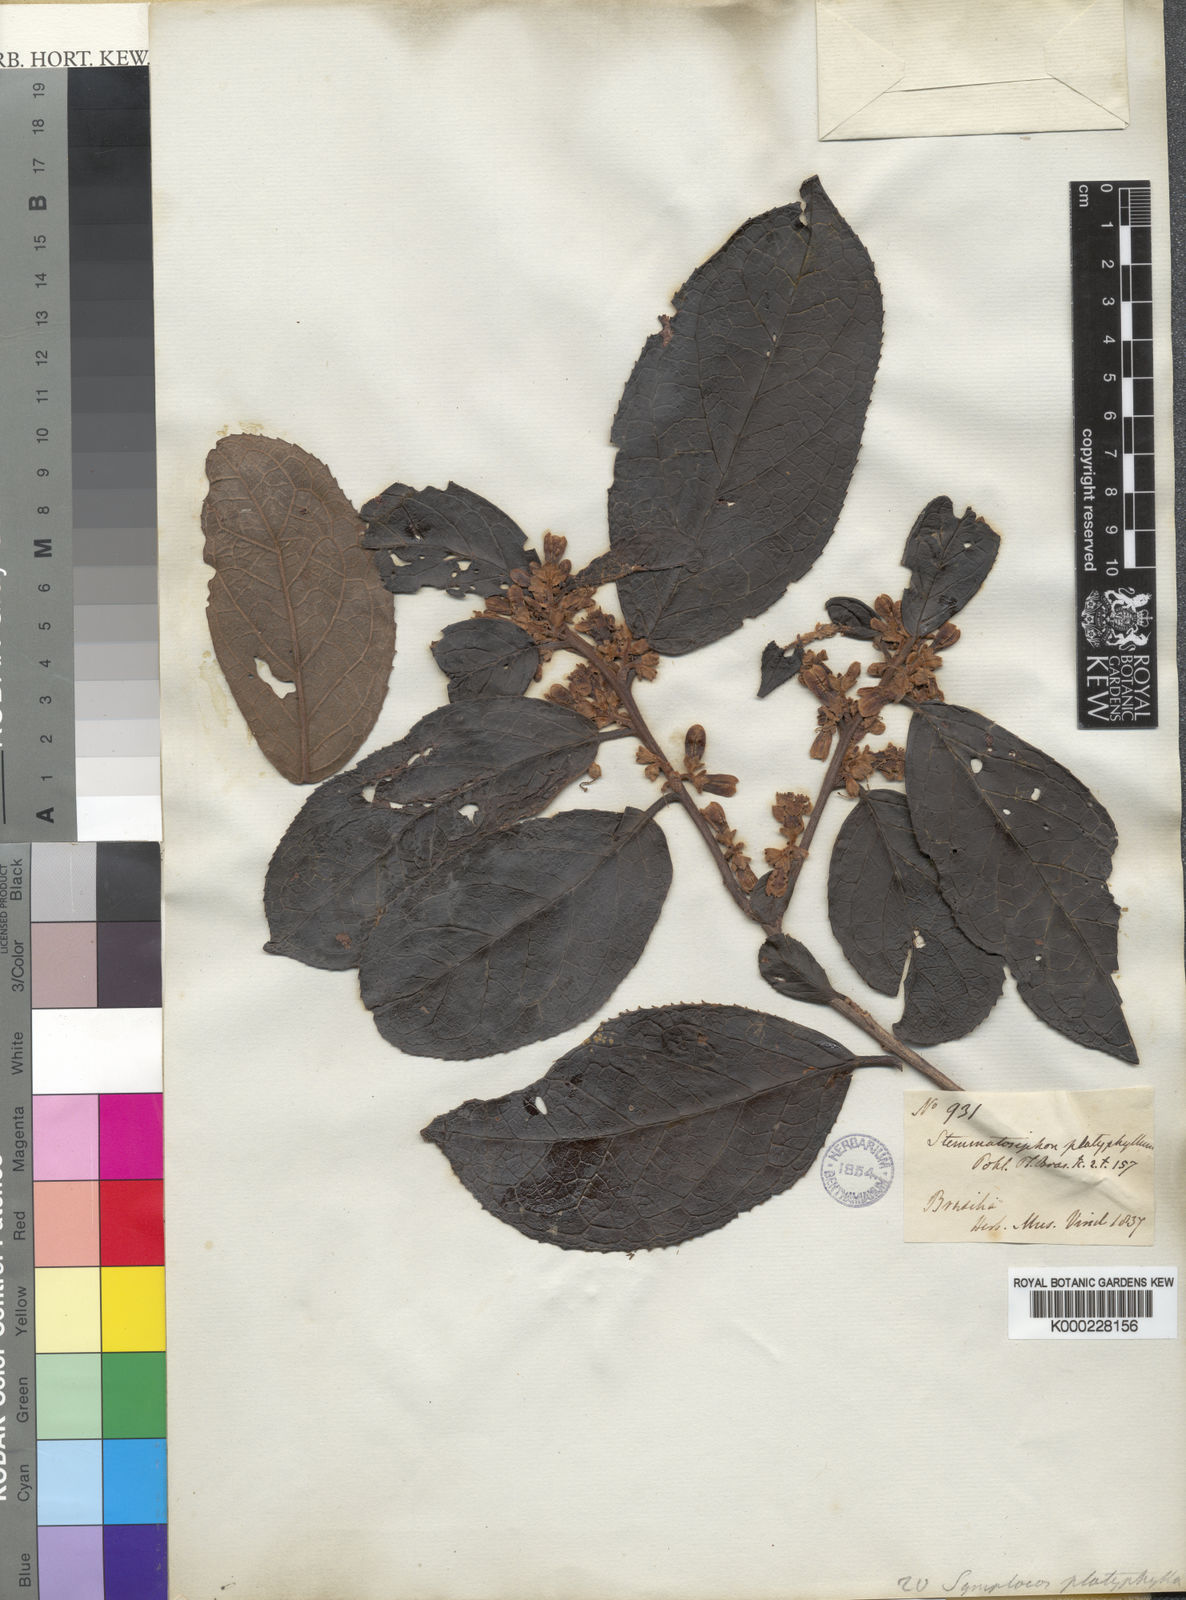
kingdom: Plantae
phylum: Tracheophyta
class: Magnoliopsida
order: Ericales
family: Symplocaceae
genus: Symplocos
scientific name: Symplocos platyphylla
